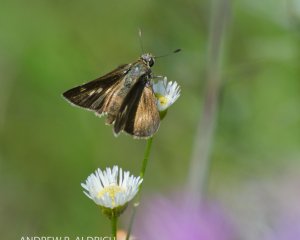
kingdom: Animalia
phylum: Arthropoda
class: Insecta
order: Lepidoptera
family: Hesperiidae
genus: Polites
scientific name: Polites egeremet
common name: Northern Broken-Dash
